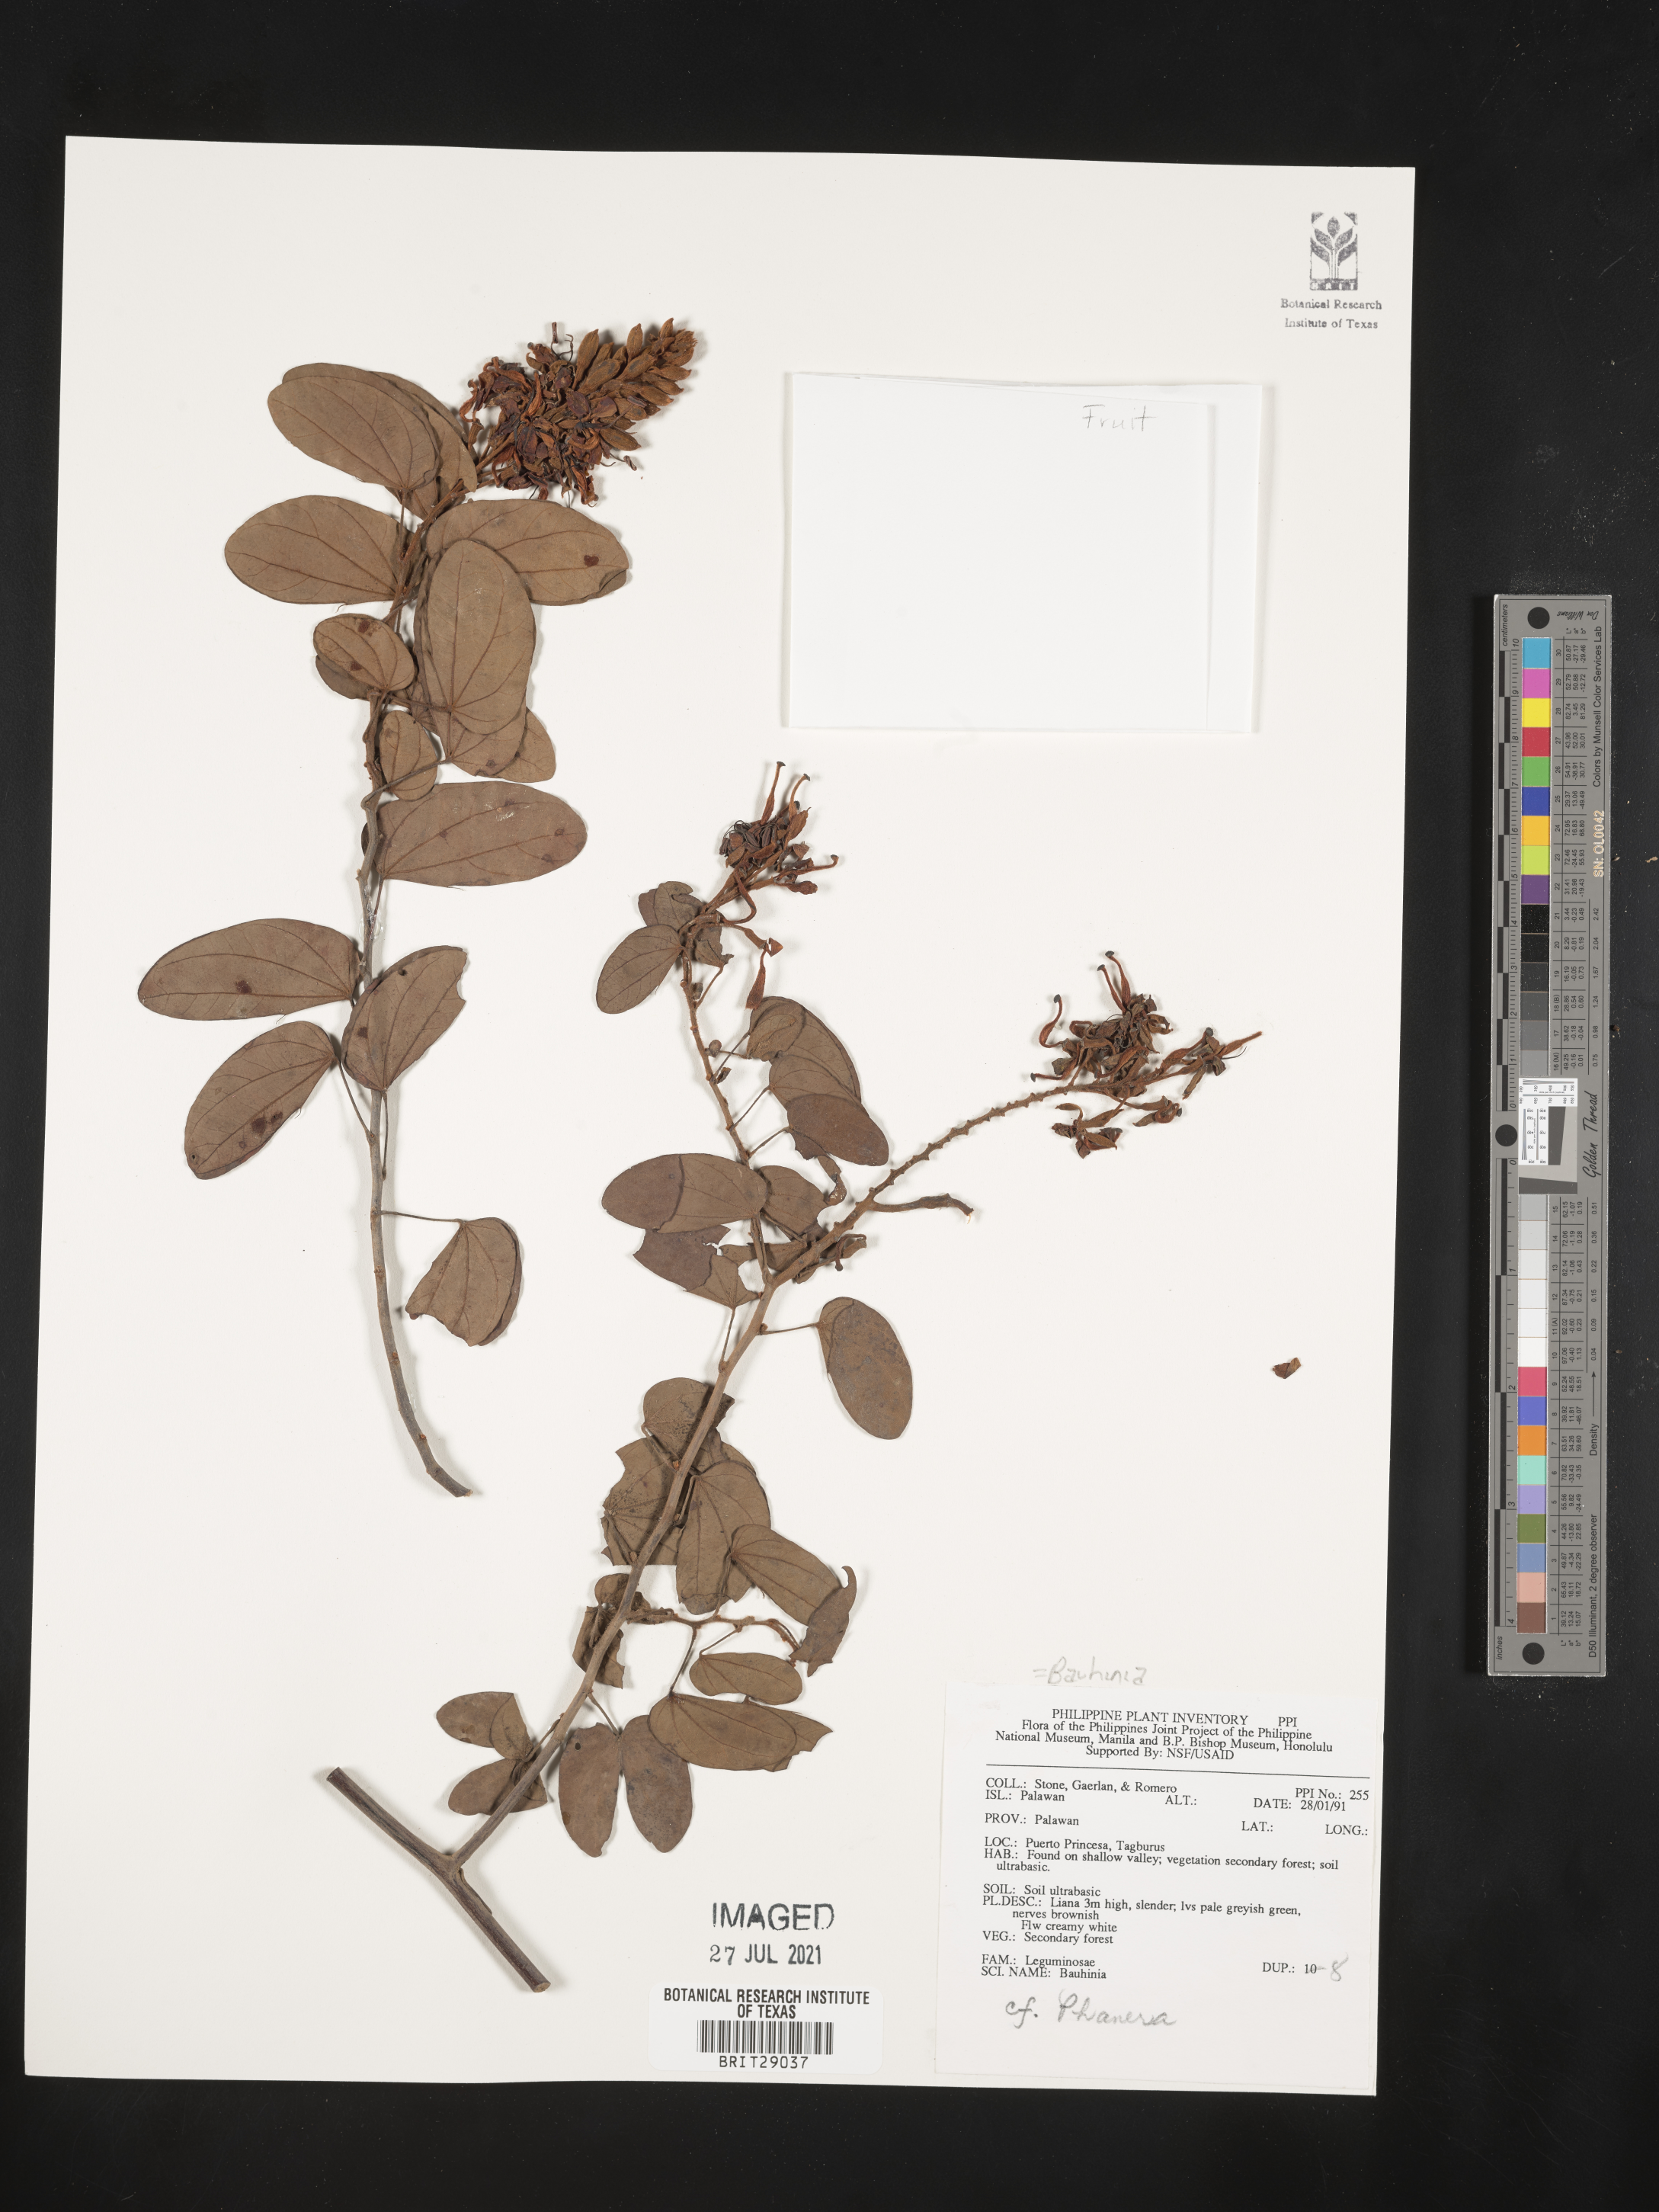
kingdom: Plantae
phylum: Tracheophyta
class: Magnoliopsida
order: Fabales
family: Fabaceae
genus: Bauhinia
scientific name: Bauhinia
